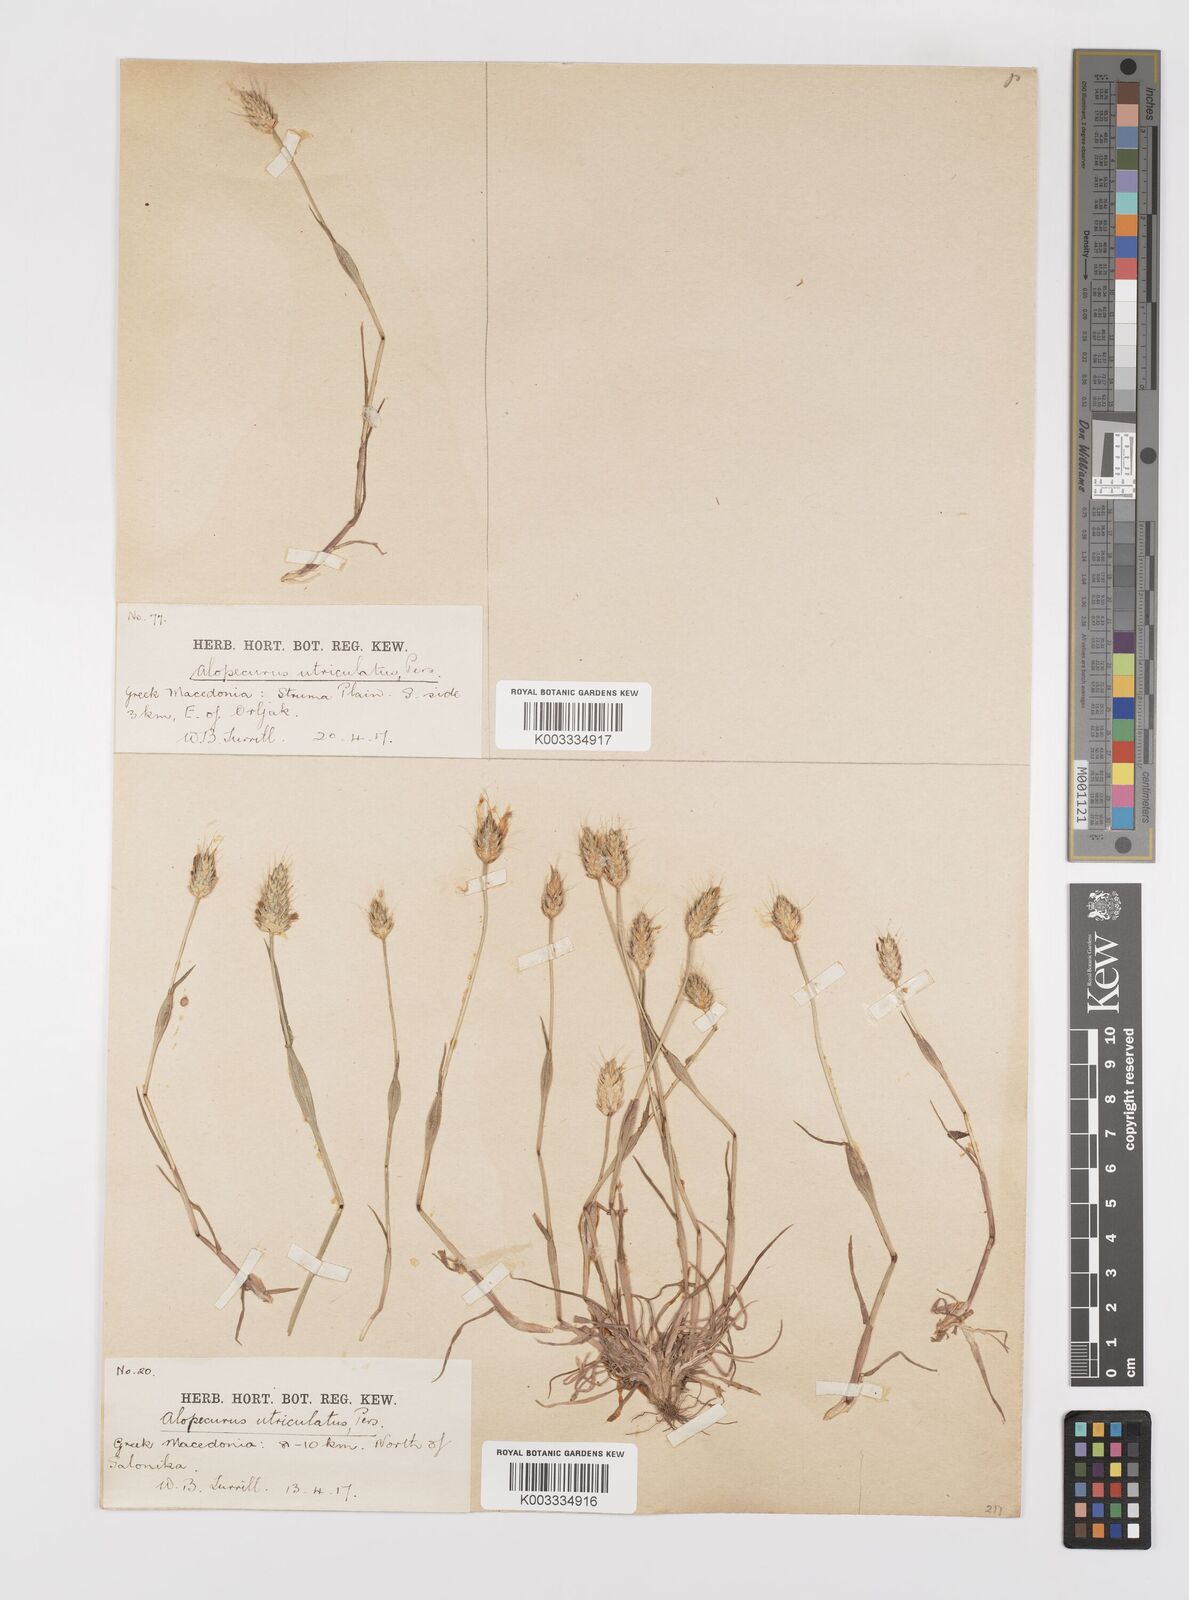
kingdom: Plantae
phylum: Tracheophyta
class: Liliopsida
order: Poales
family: Poaceae
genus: Alopecurus
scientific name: Alopecurus rendlei
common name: Rendle's meadow foxtail
